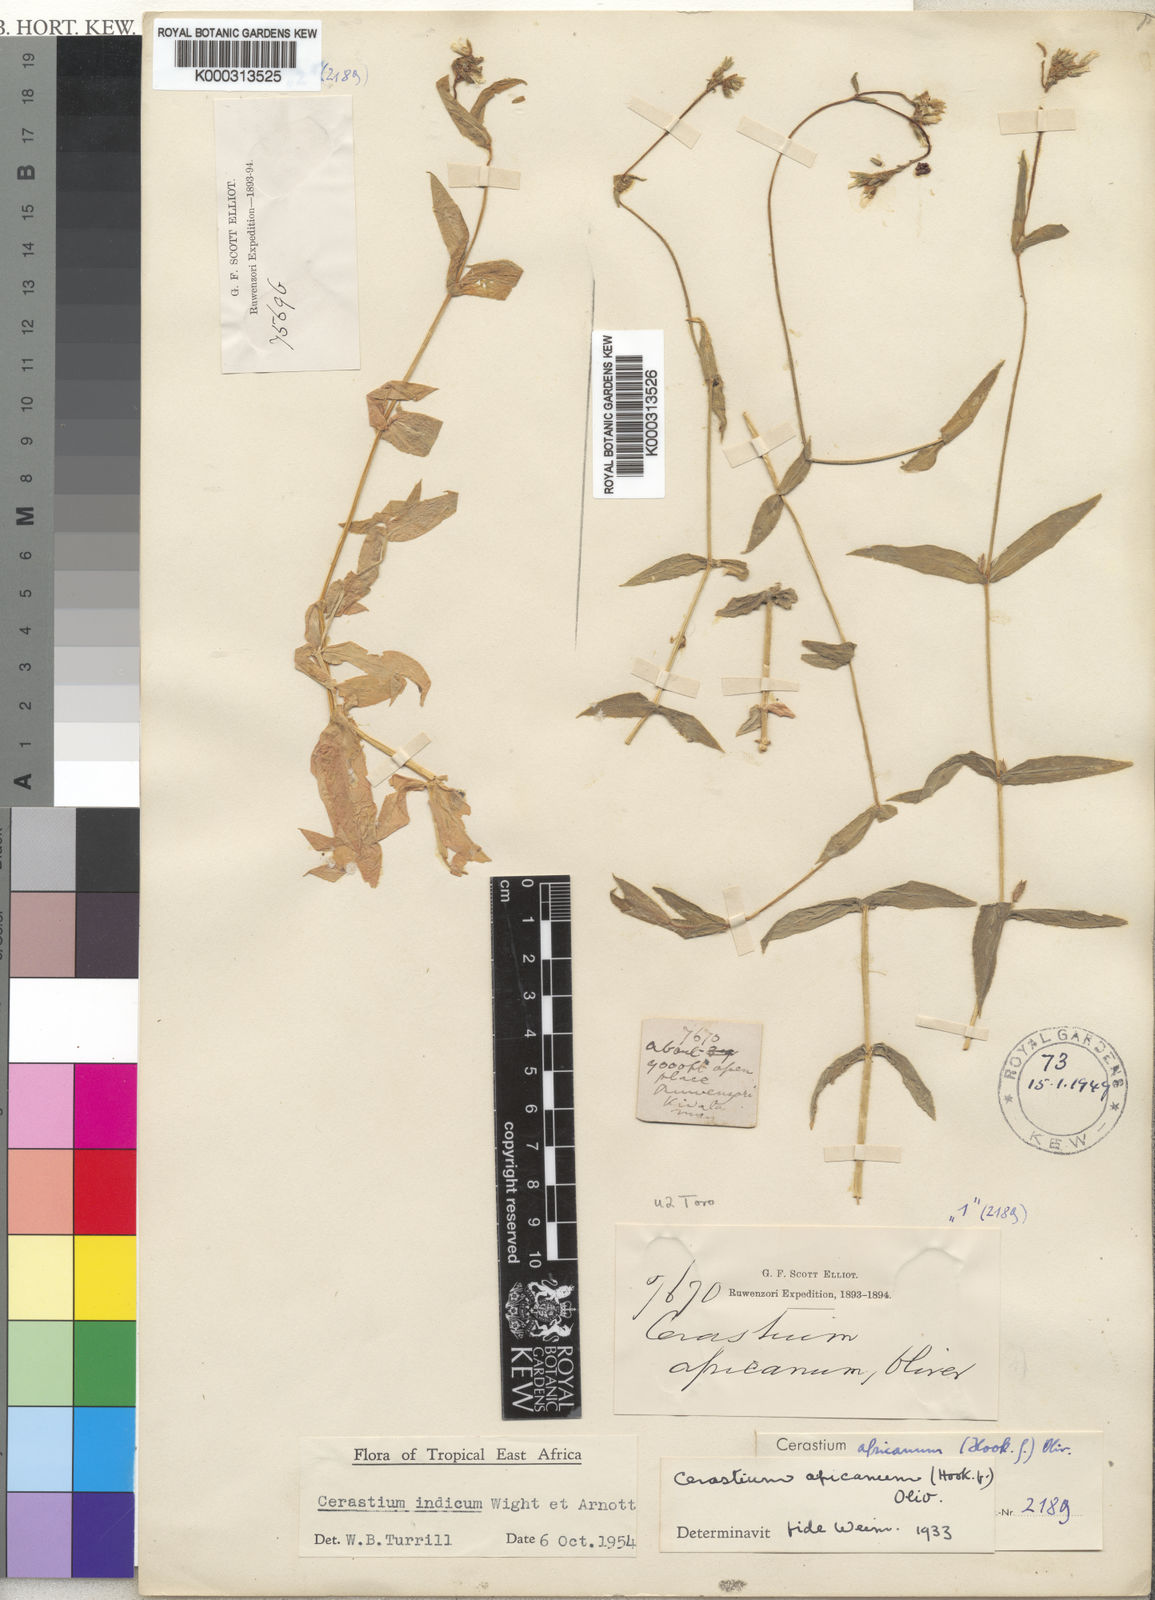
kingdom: Plantae
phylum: Tracheophyta
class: Magnoliopsida
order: Caryophyllales
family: Caryophyllaceae
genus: Cerastium
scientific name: Cerastium lanceolatum
